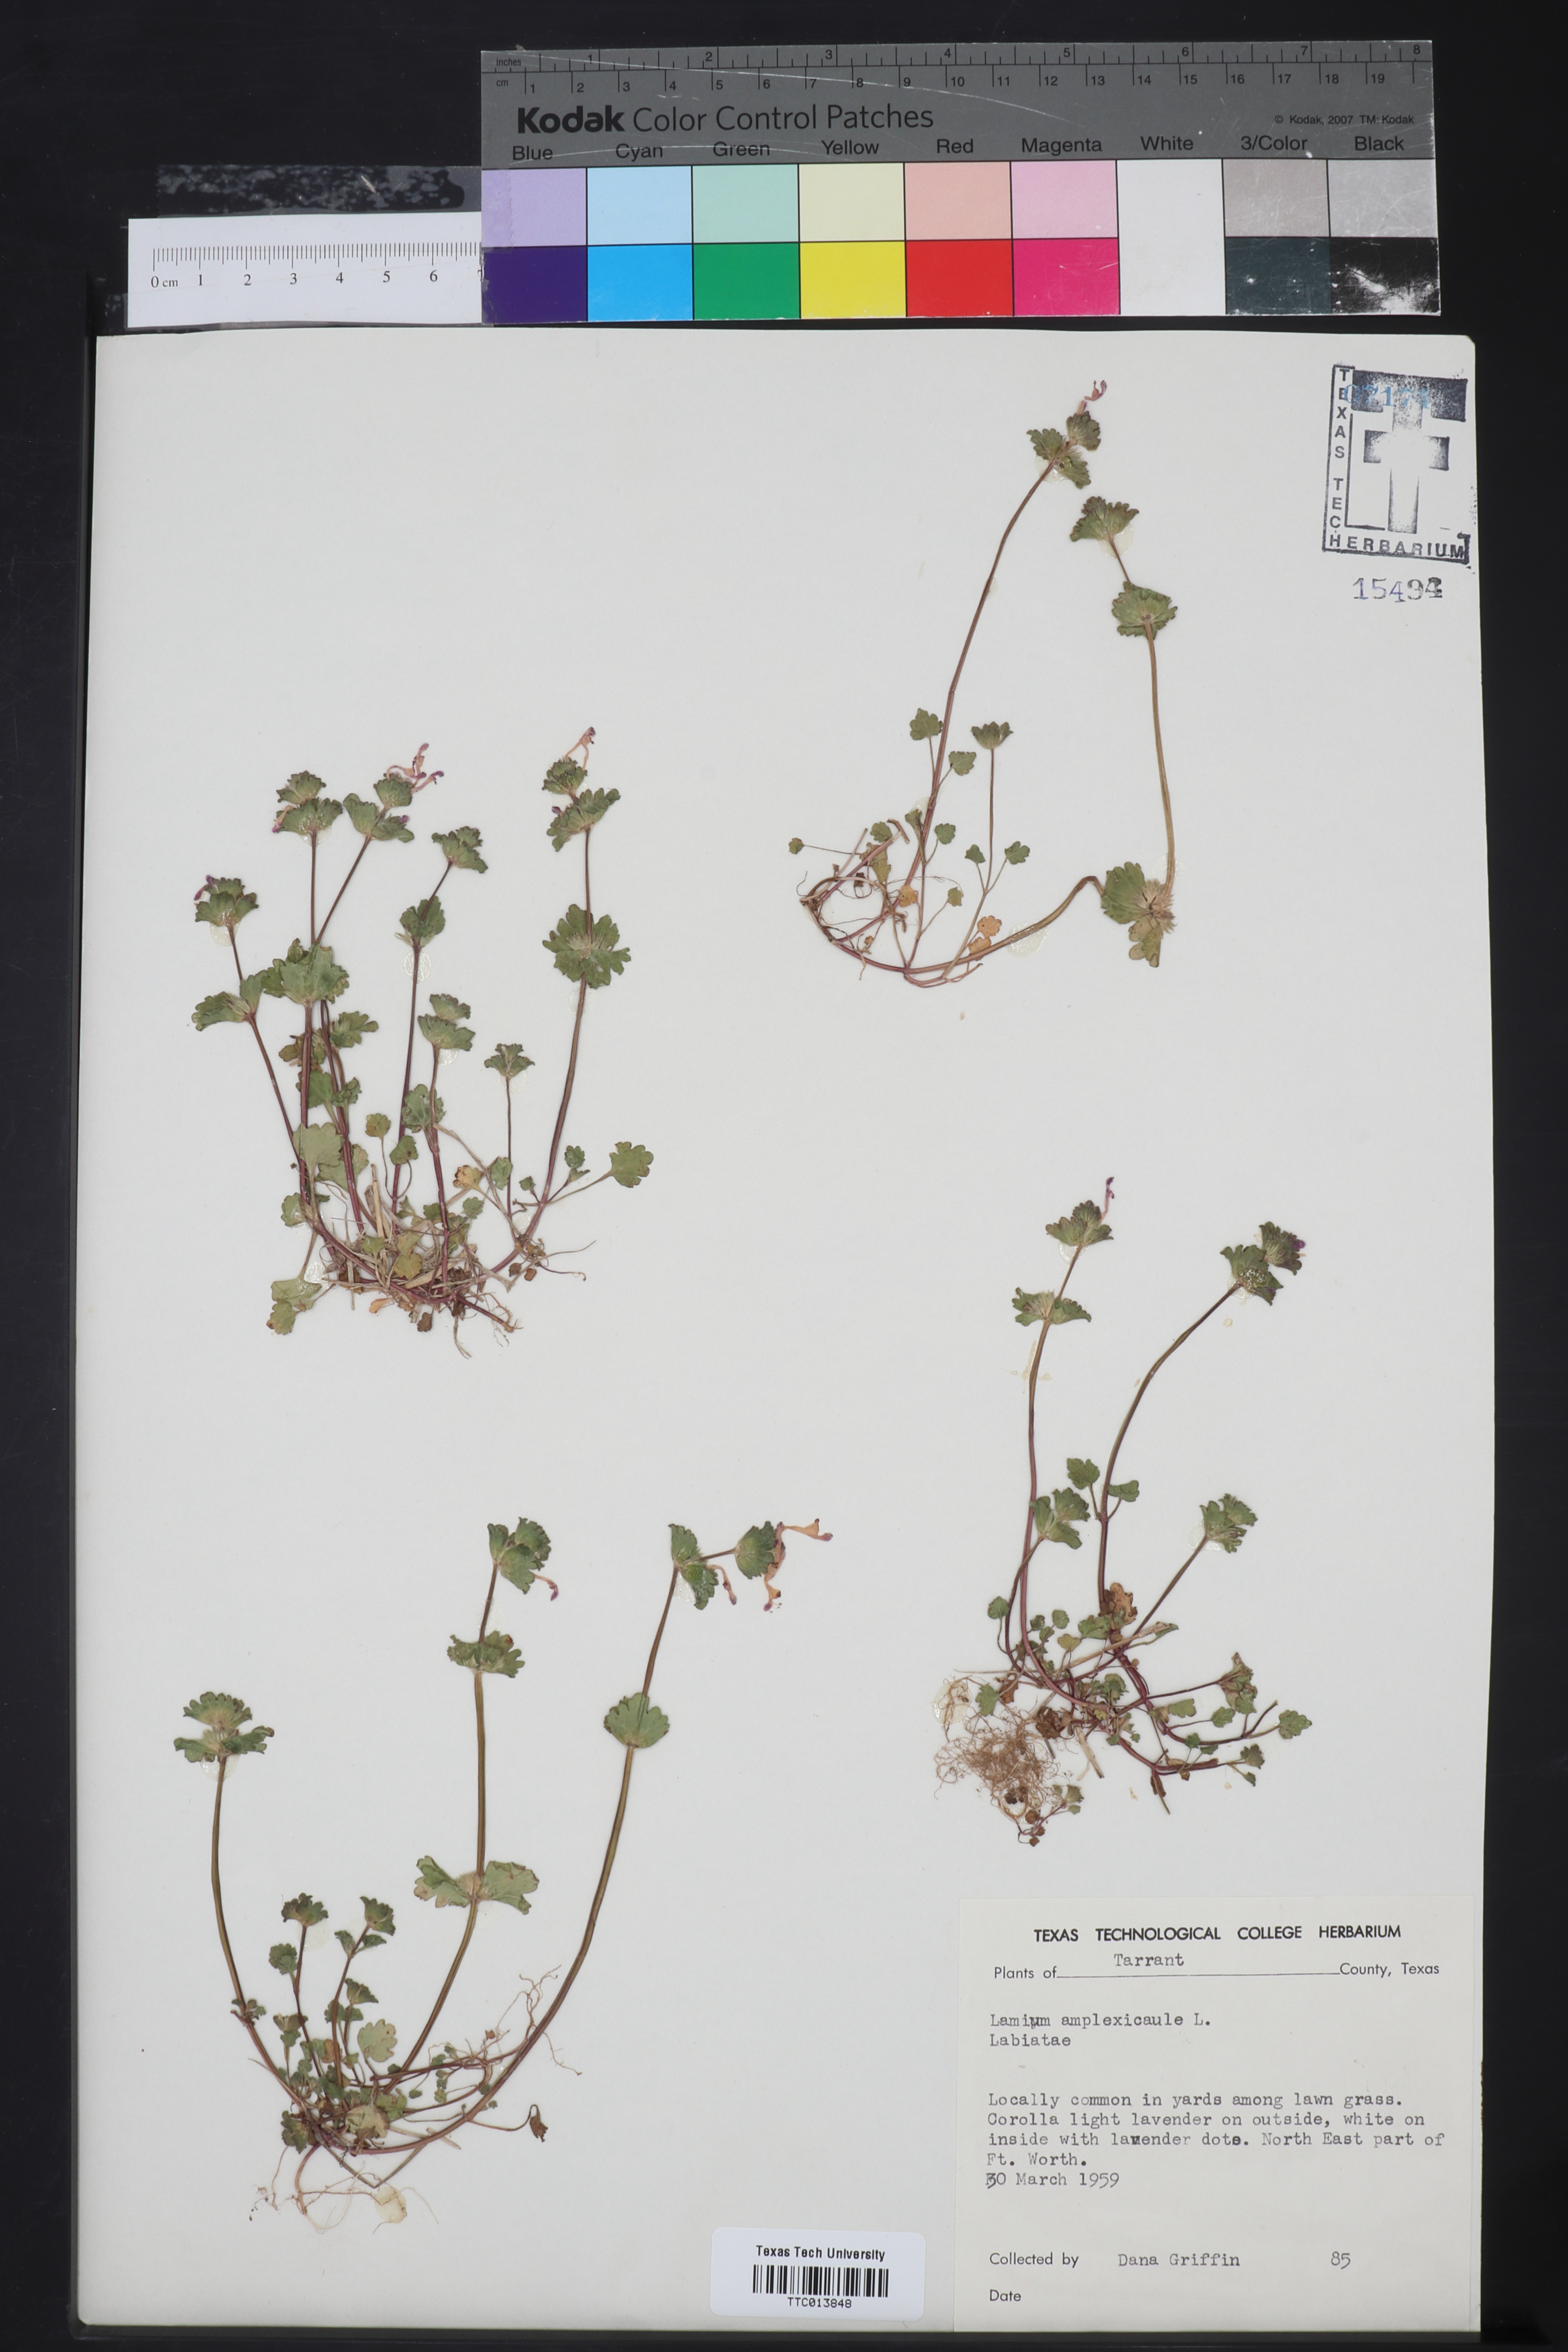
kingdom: Plantae
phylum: Tracheophyta
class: Magnoliopsida
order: Lamiales
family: Lamiaceae
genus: Lamium
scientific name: Lamium amplexicaule
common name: Henbit dead-nettle
